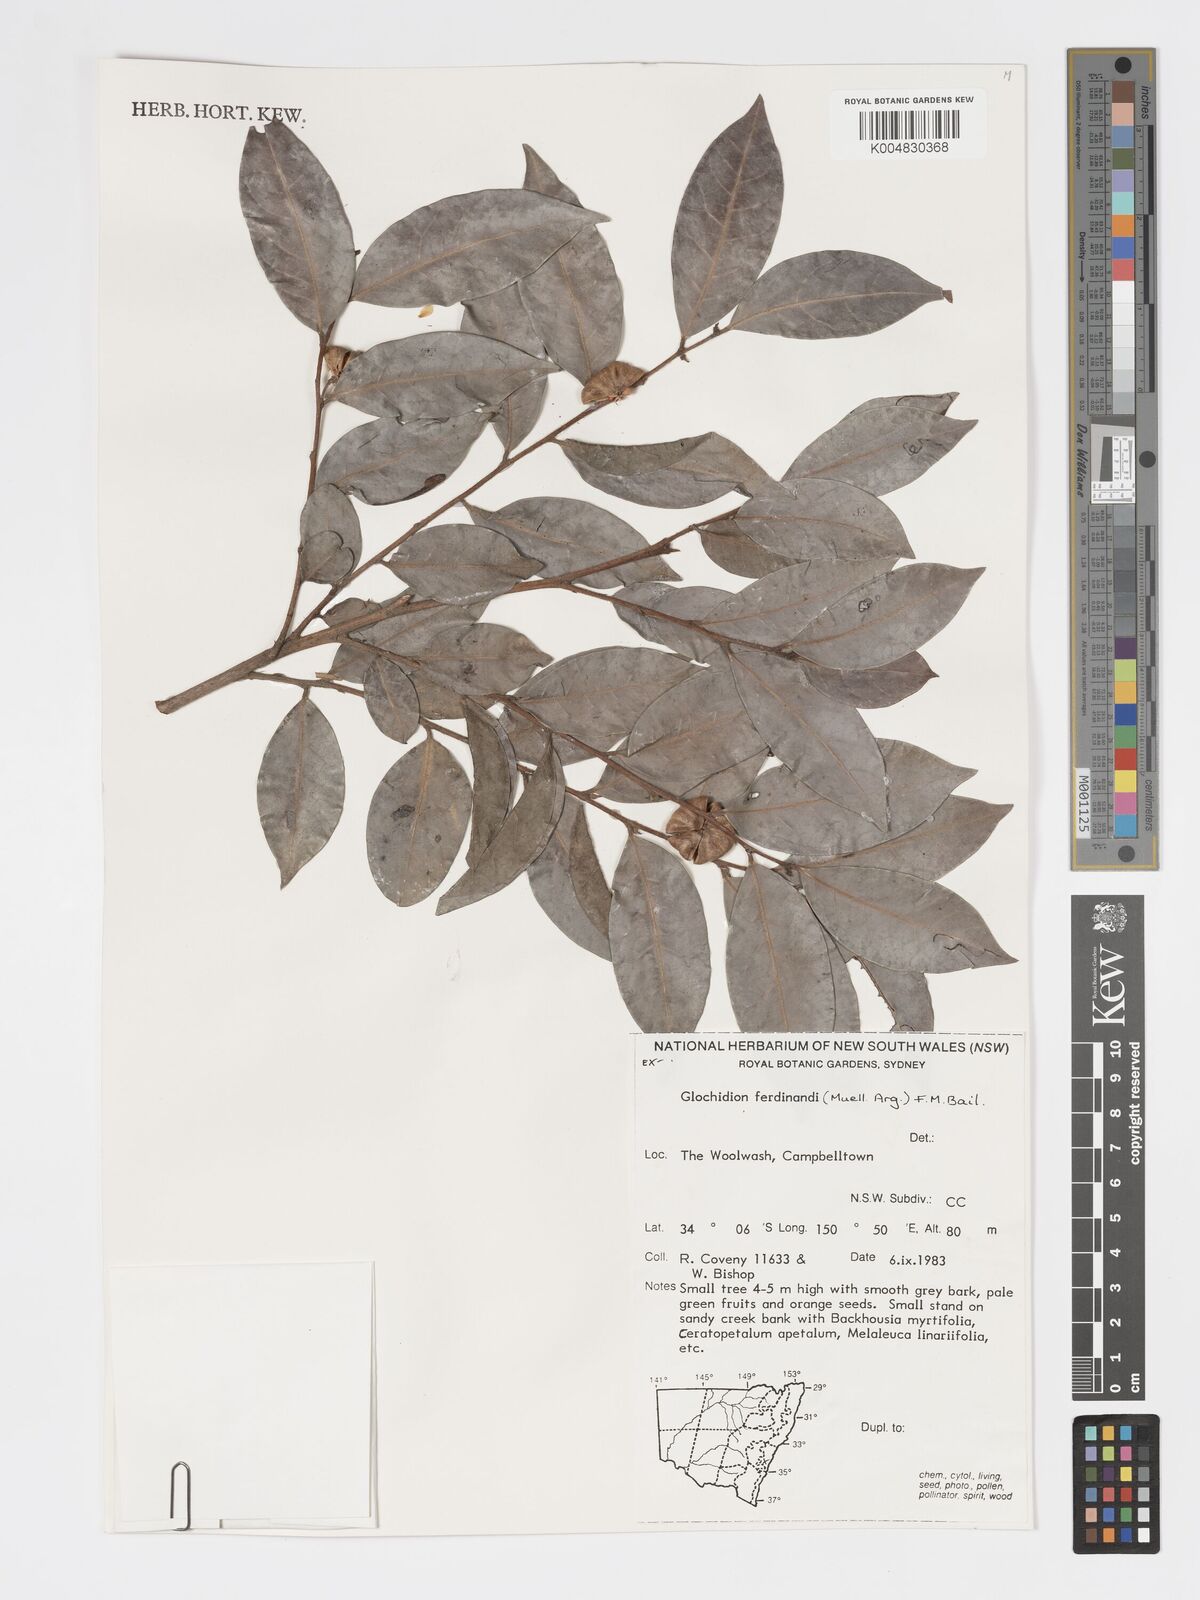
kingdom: Plantae
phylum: Tracheophyta
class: Magnoliopsida
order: Malpighiales
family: Phyllanthaceae
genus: Glochidion
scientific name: Glochidion ferdinandi
